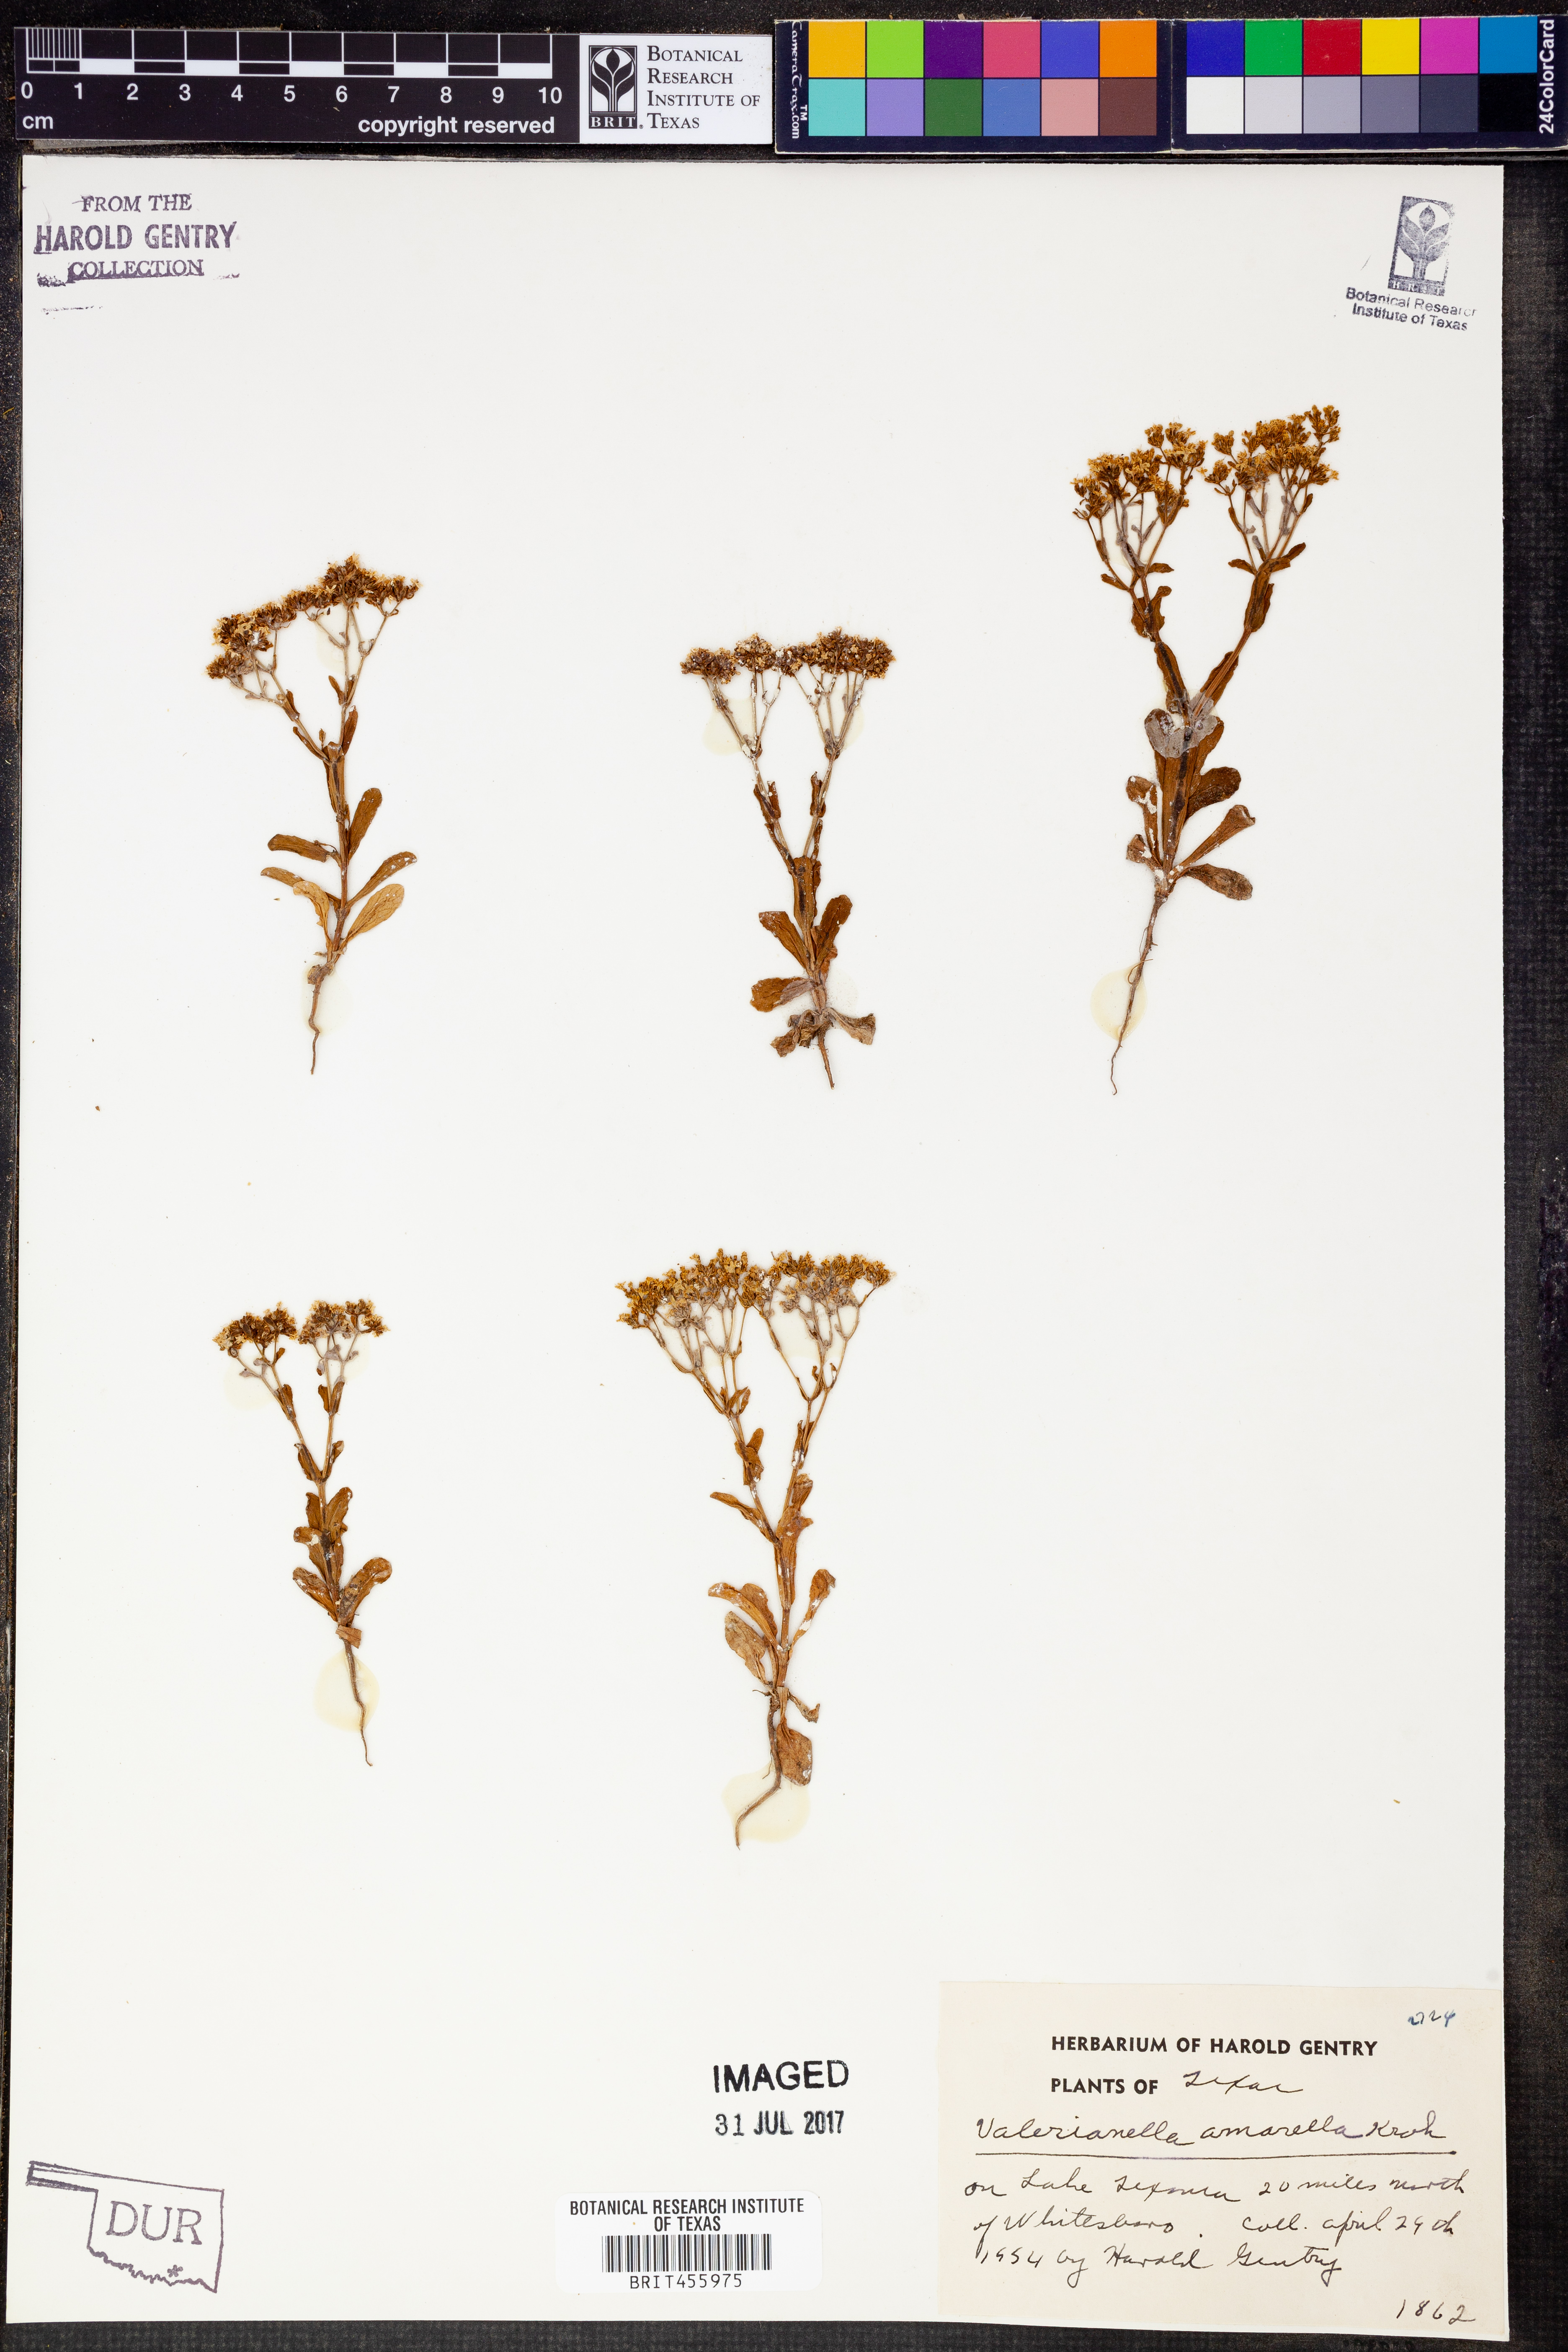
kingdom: Plantae
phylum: Tracheophyta
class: Magnoliopsida
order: Dipsacales
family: Caprifoliaceae
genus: Valerianella
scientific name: Valerianella amarella
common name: Hariy cornsalad
